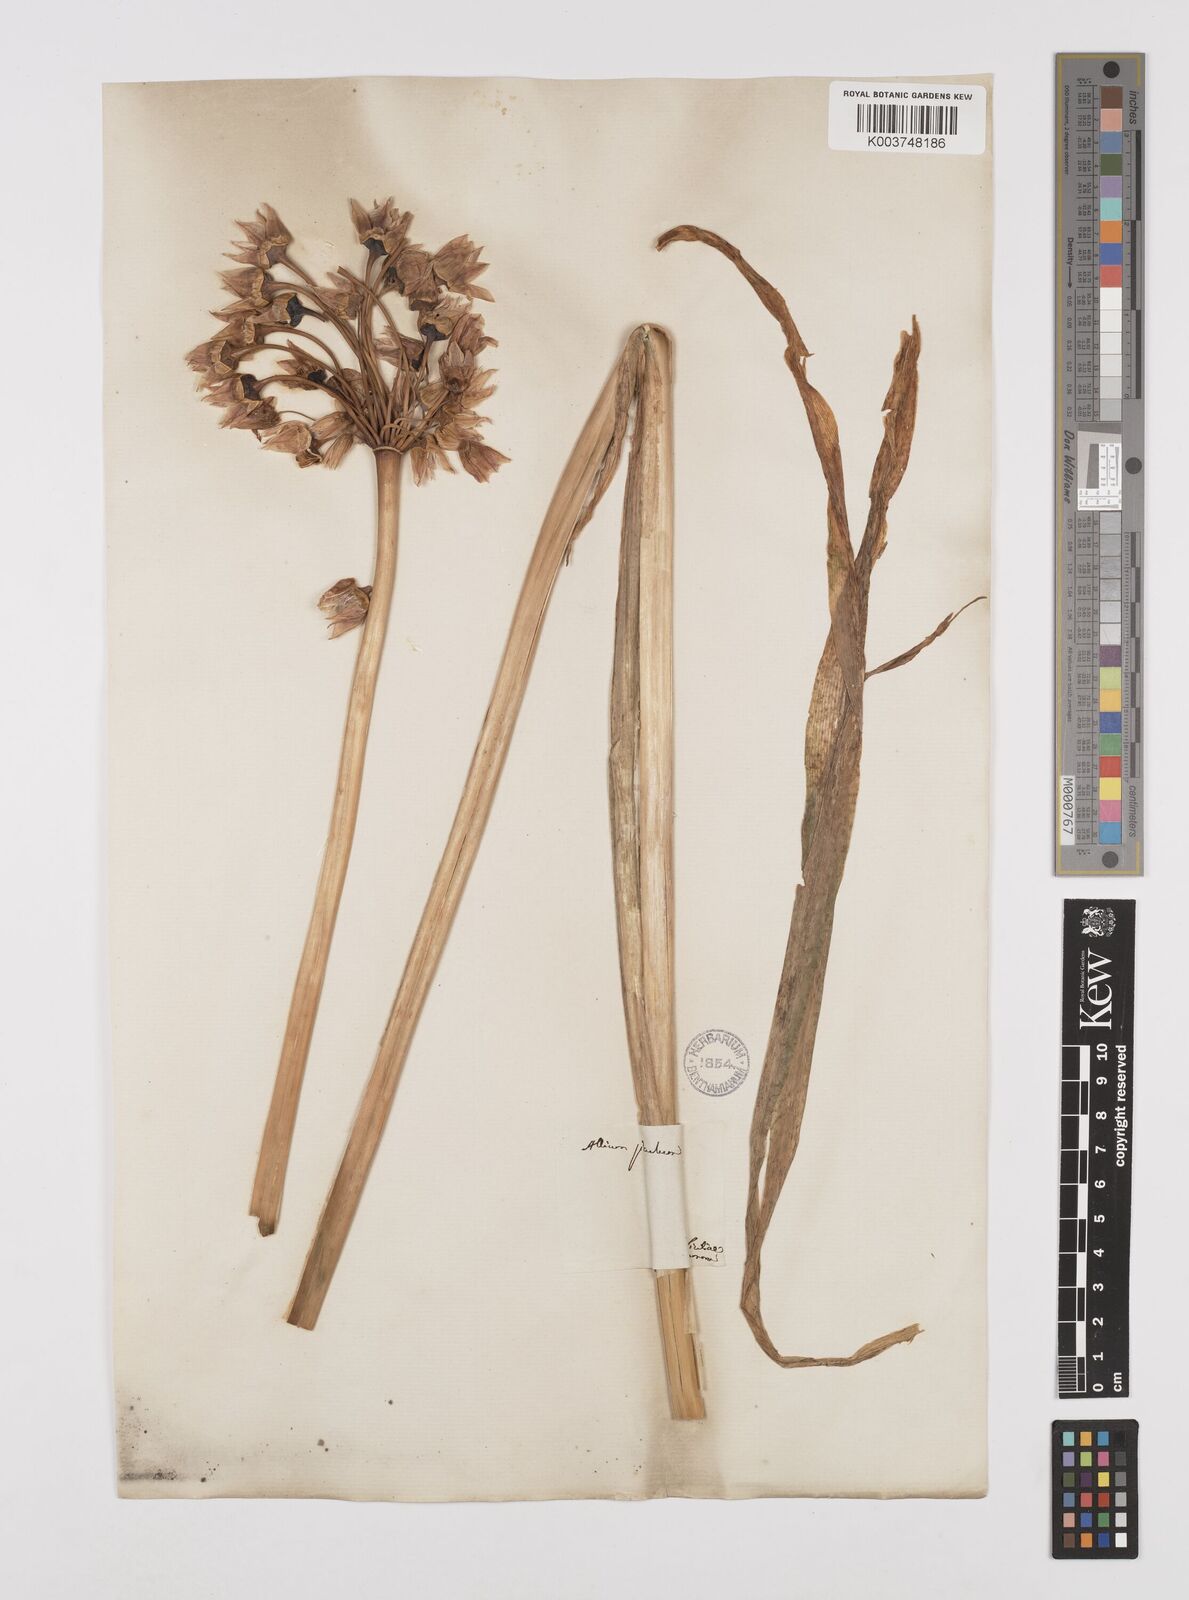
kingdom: Plantae
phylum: Tracheophyta
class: Liliopsida
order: Asparagales
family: Amaryllidaceae
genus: Allium
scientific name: Allium siculum
